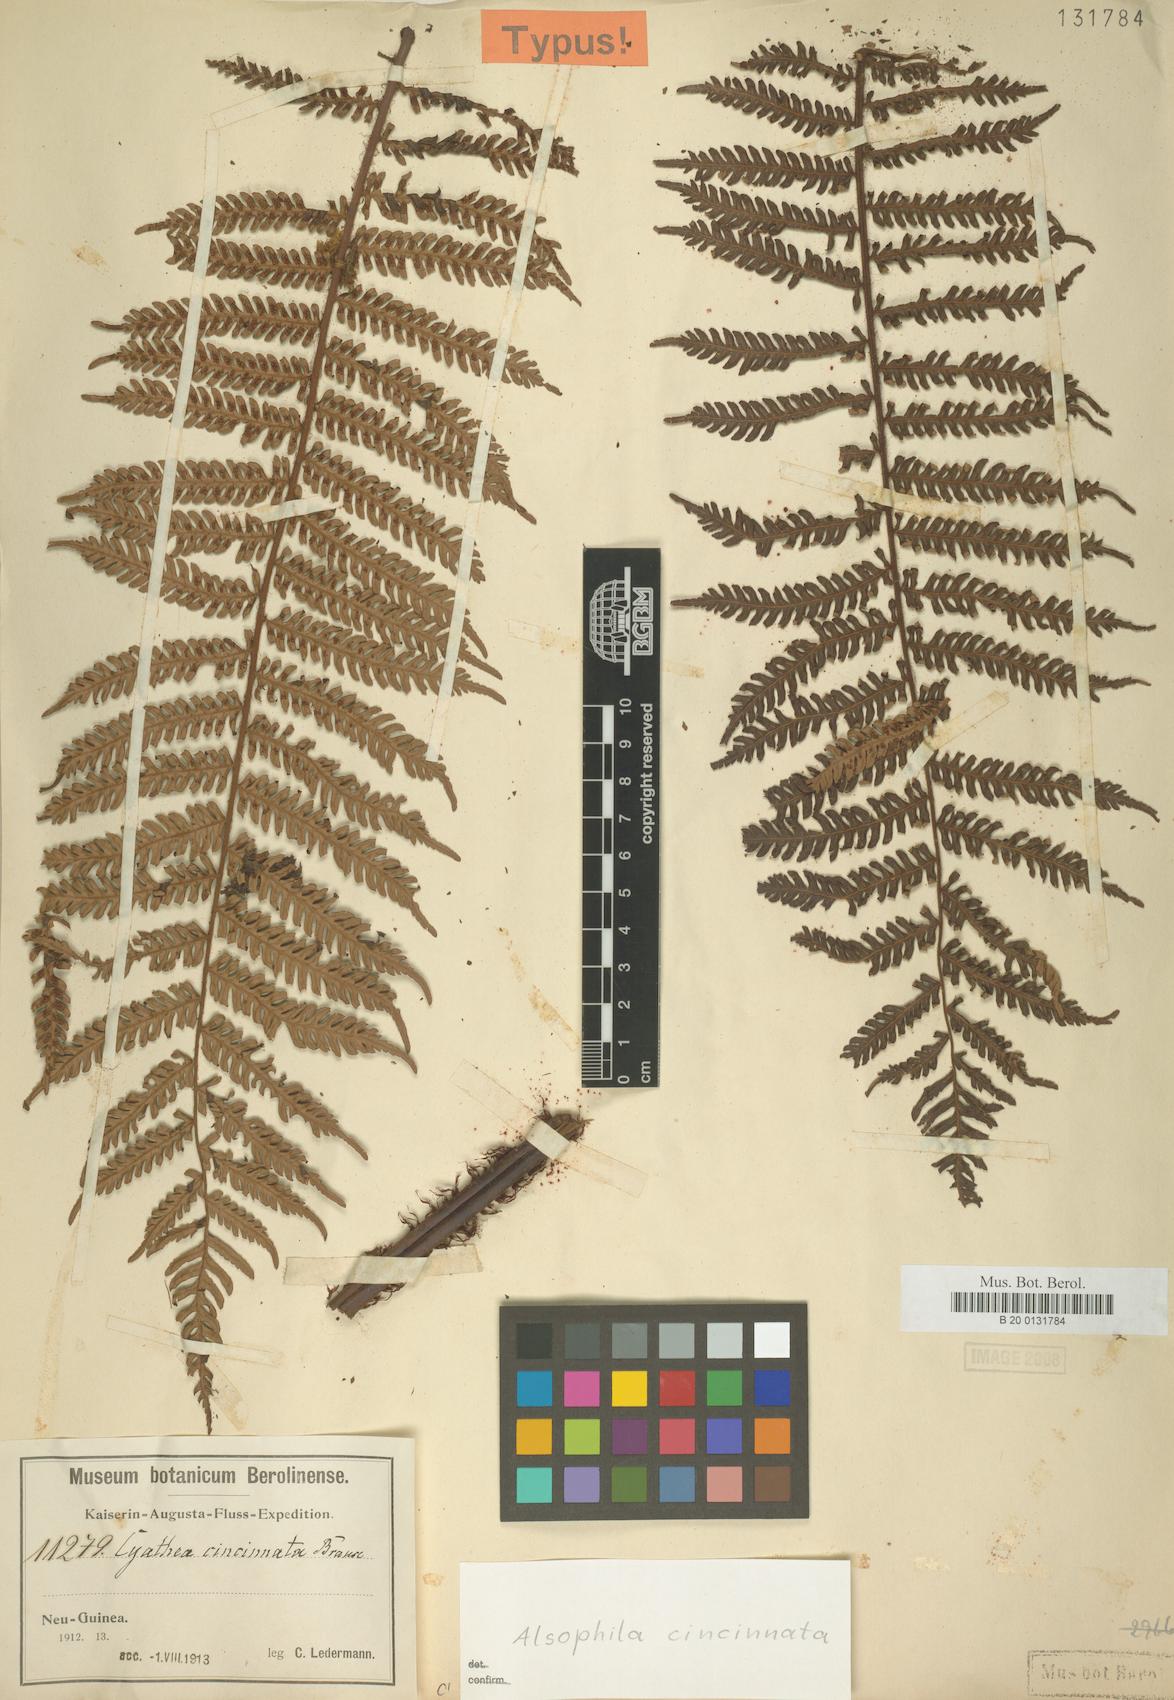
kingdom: Plantae
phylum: Tracheophyta
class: Polypodiopsida
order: Cyatheales
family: Cyatheaceae
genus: Alsophila
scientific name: Alsophila cincinnata
